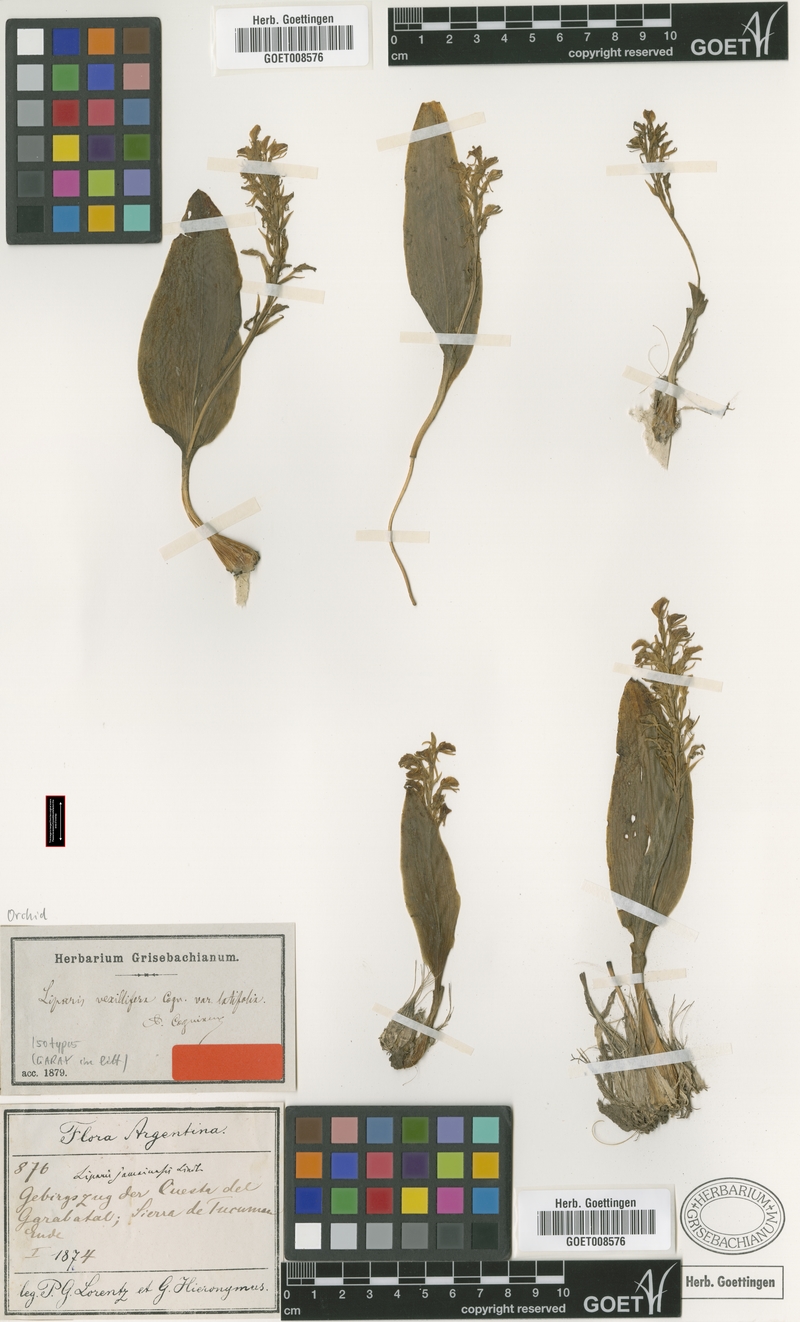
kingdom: Plantae
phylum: Tracheophyta
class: Liliopsida
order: Asparagales
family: Orchidaceae
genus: Liparis
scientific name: Liparis vexillifera
